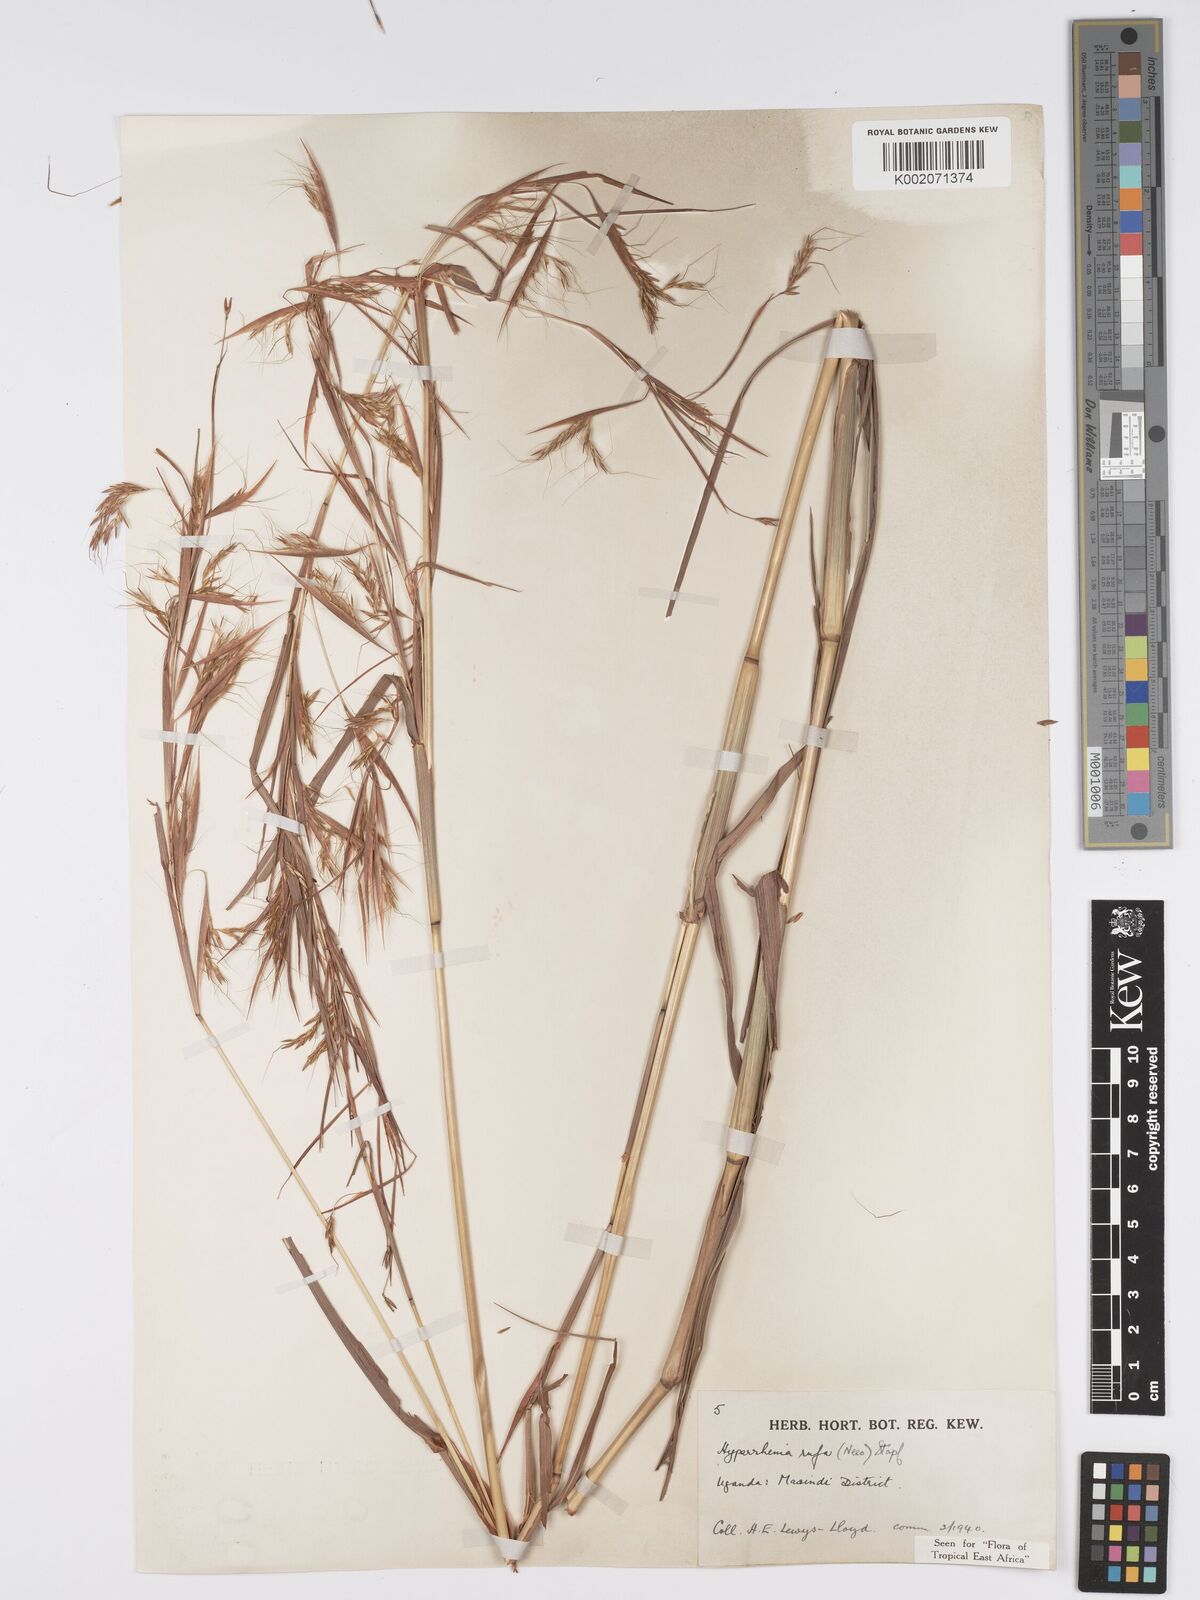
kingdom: Plantae
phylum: Tracheophyta
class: Liliopsida
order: Poales
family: Poaceae
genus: Hyparrhenia
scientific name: Hyparrhenia rufa
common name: Jaraguagrass
